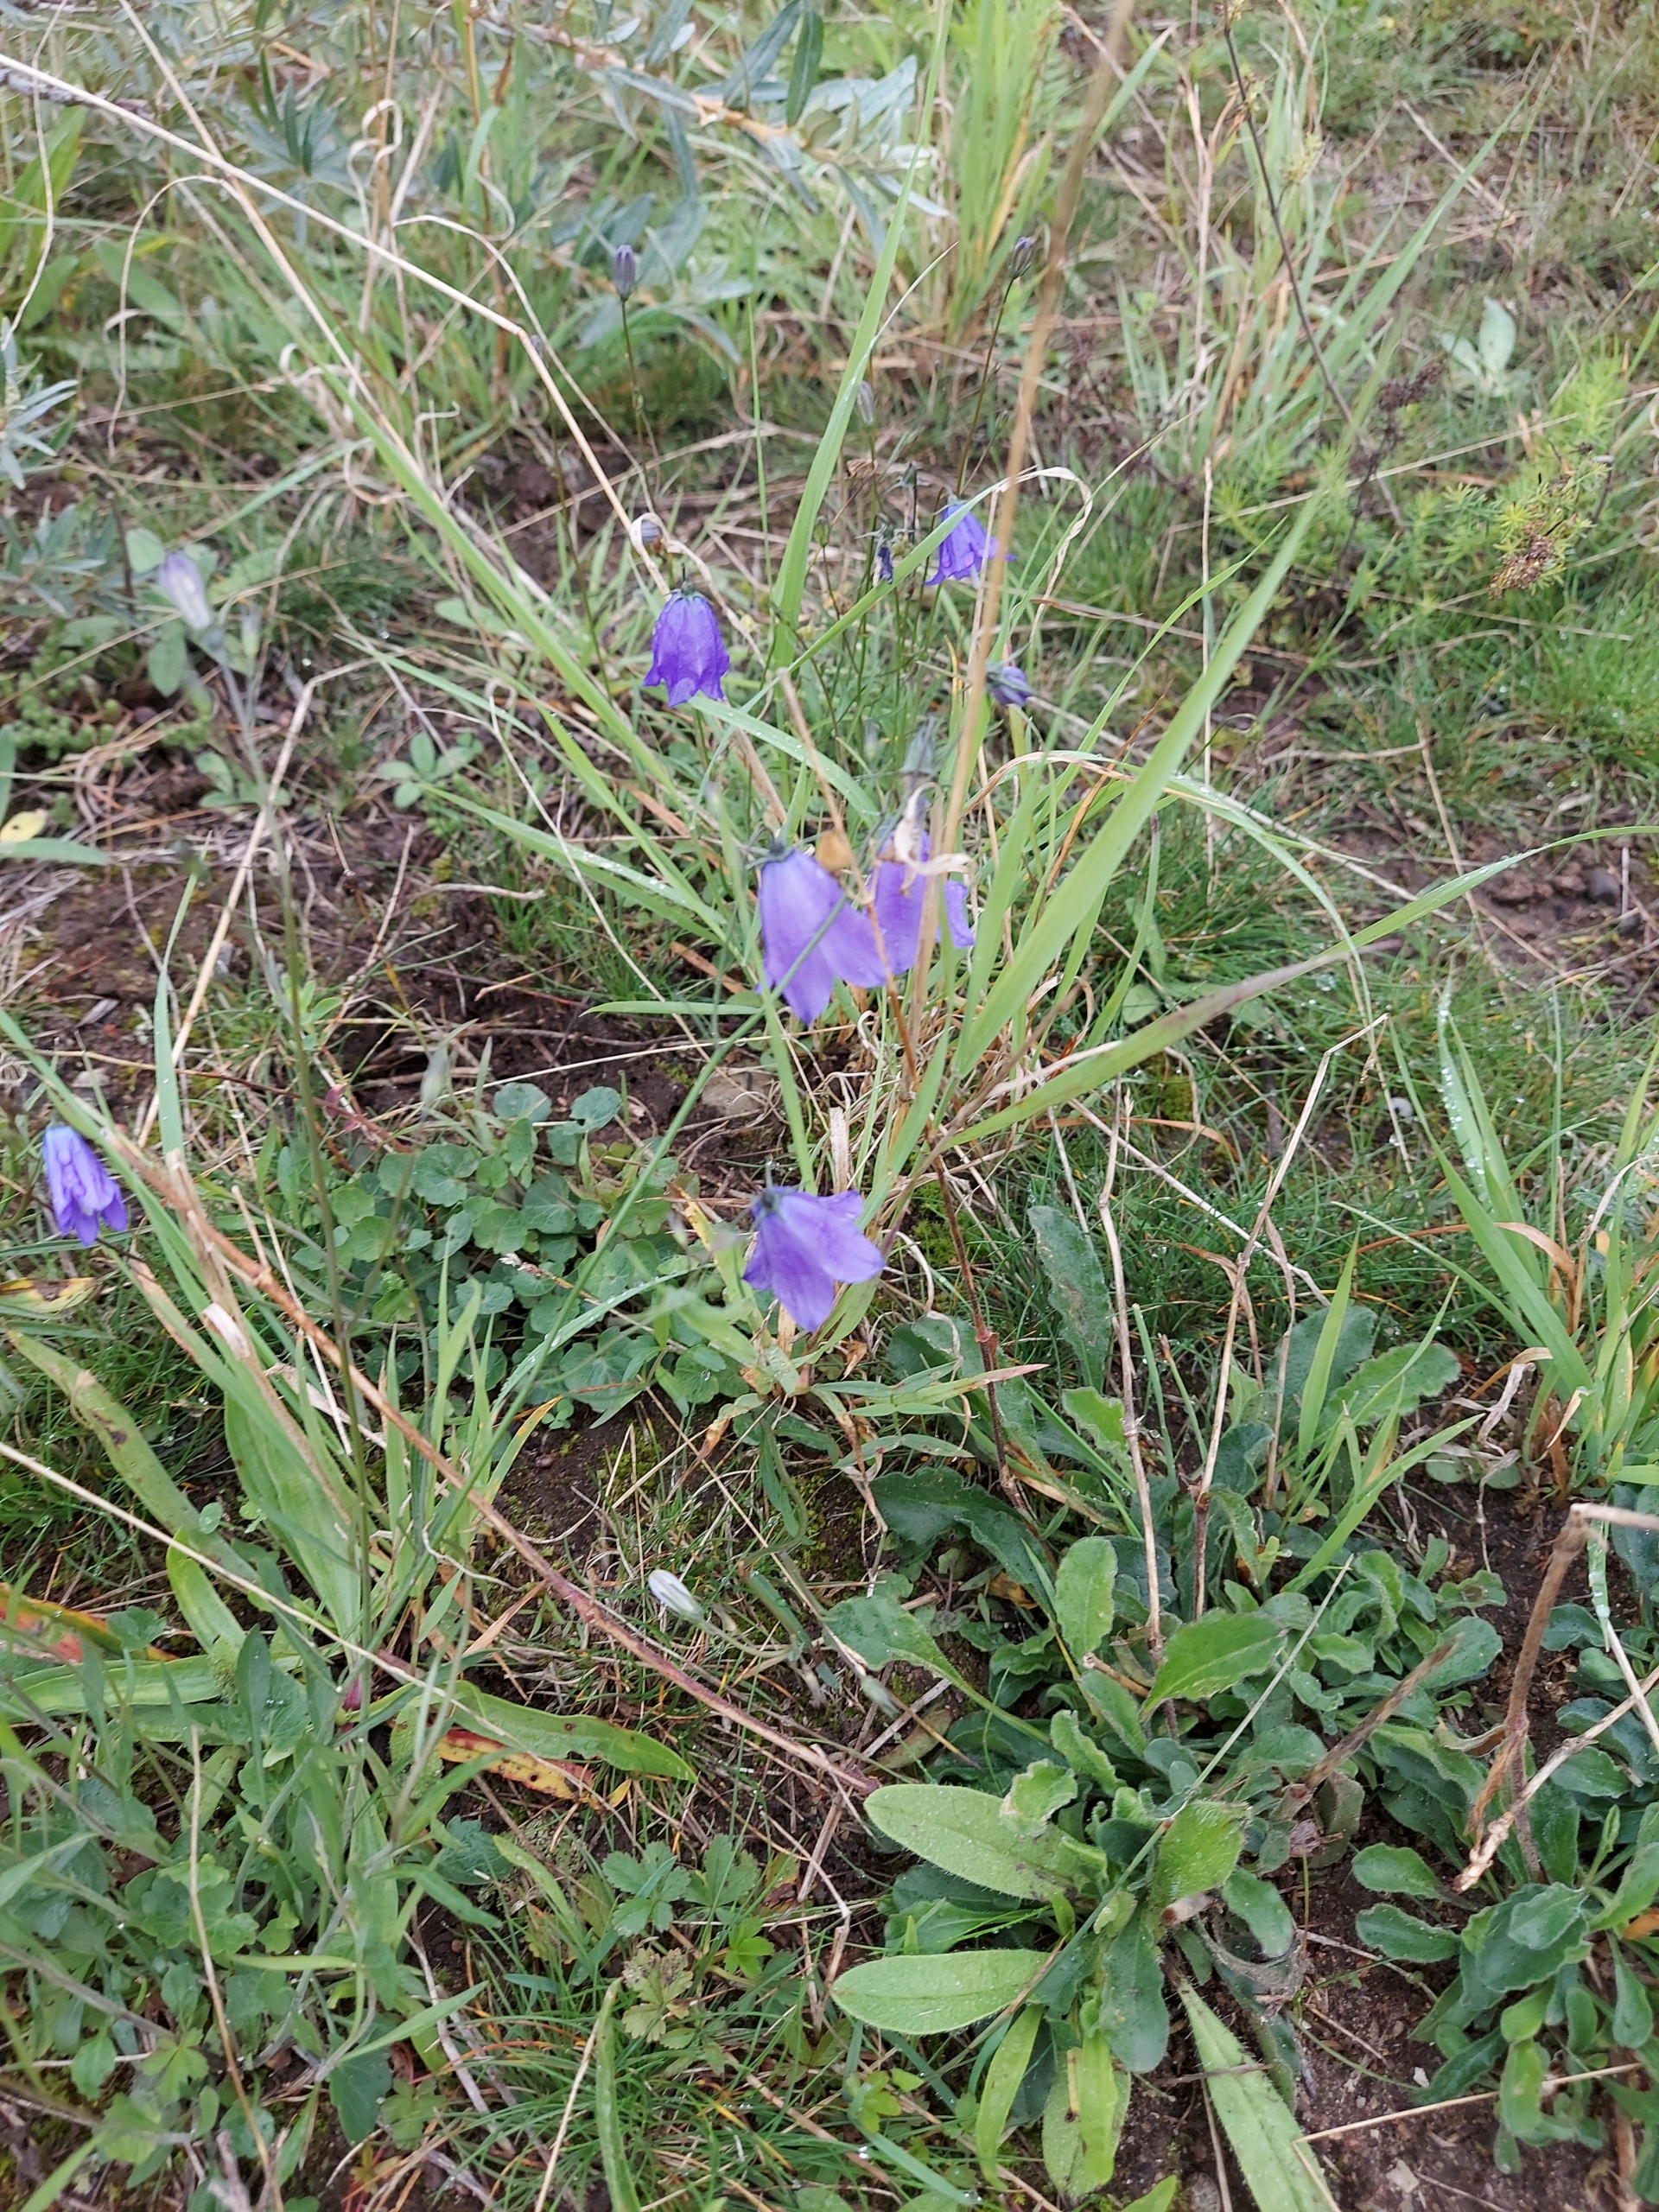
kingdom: Plantae
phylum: Tracheophyta
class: Magnoliopsida
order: Asterales
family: Campanulaceae
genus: Campanula
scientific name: Campanula rotundifolia
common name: Liden klokke
